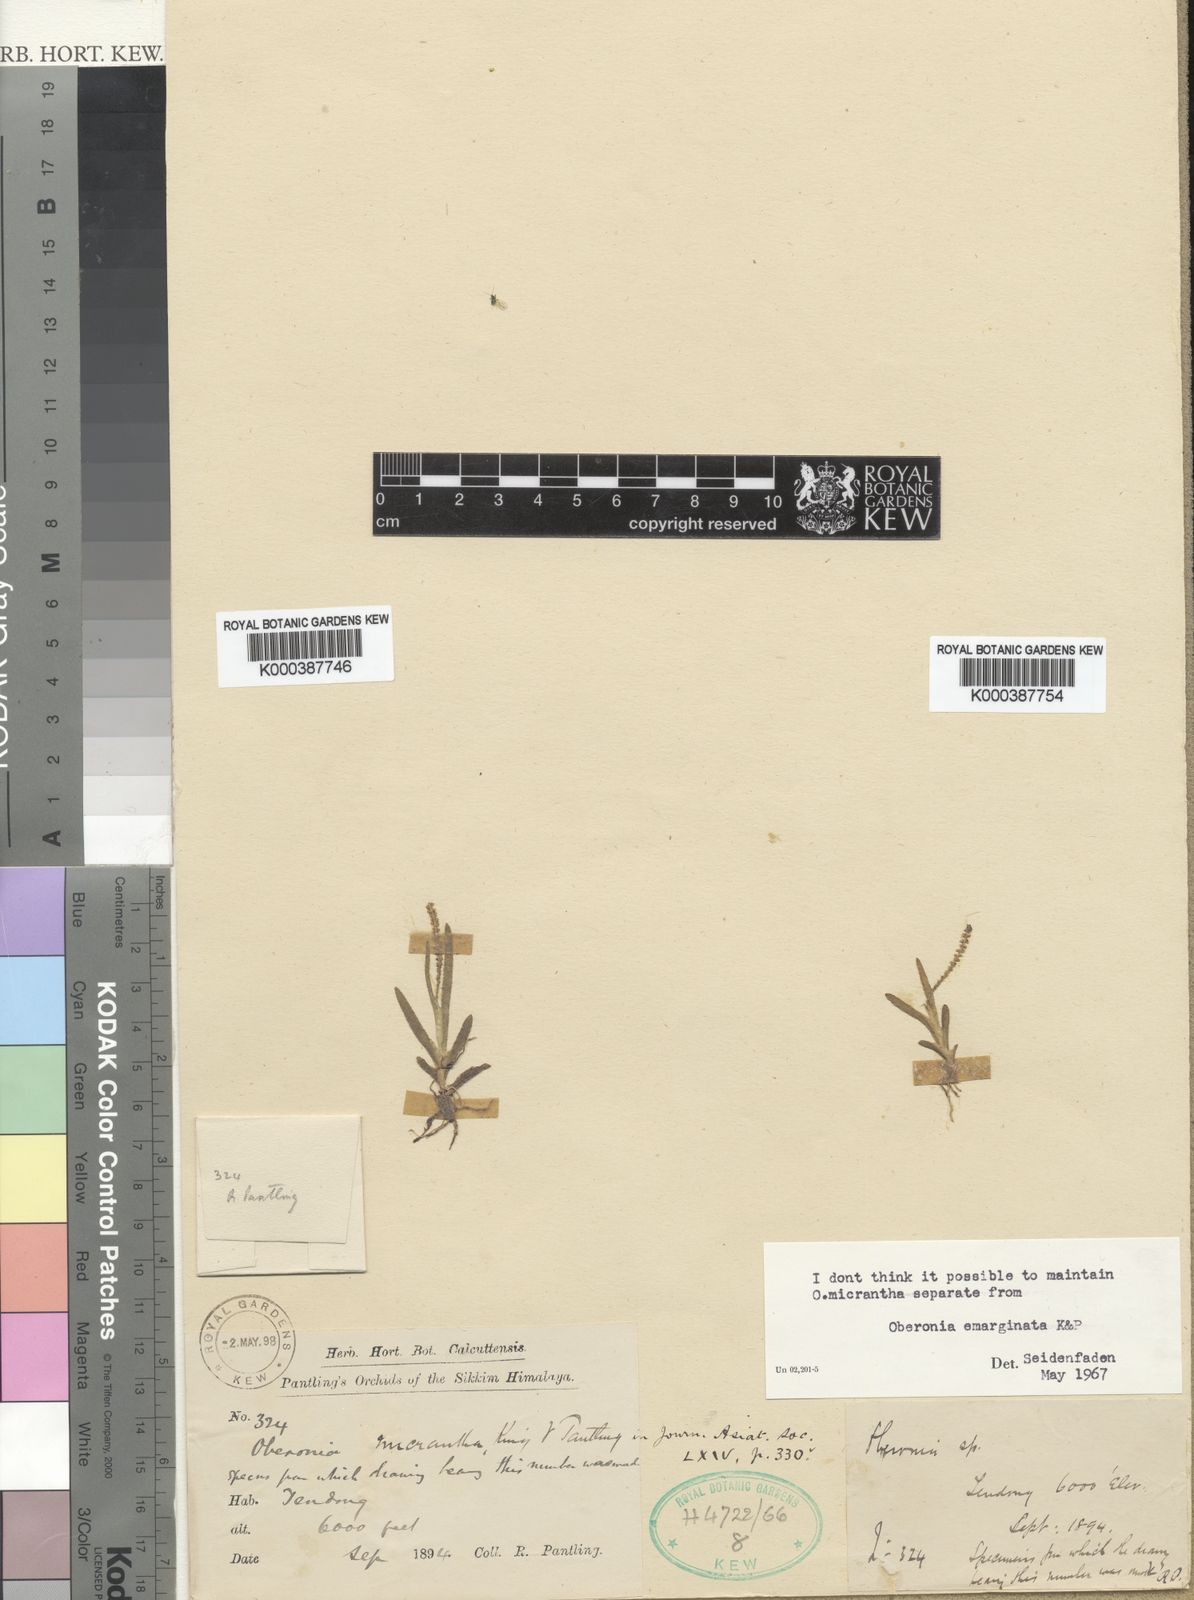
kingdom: Plantae
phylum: Tracheophyta
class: Liliopsida
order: Asparagales
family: Orchidaceae
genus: Oberonia
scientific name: Oberonia emarginata
